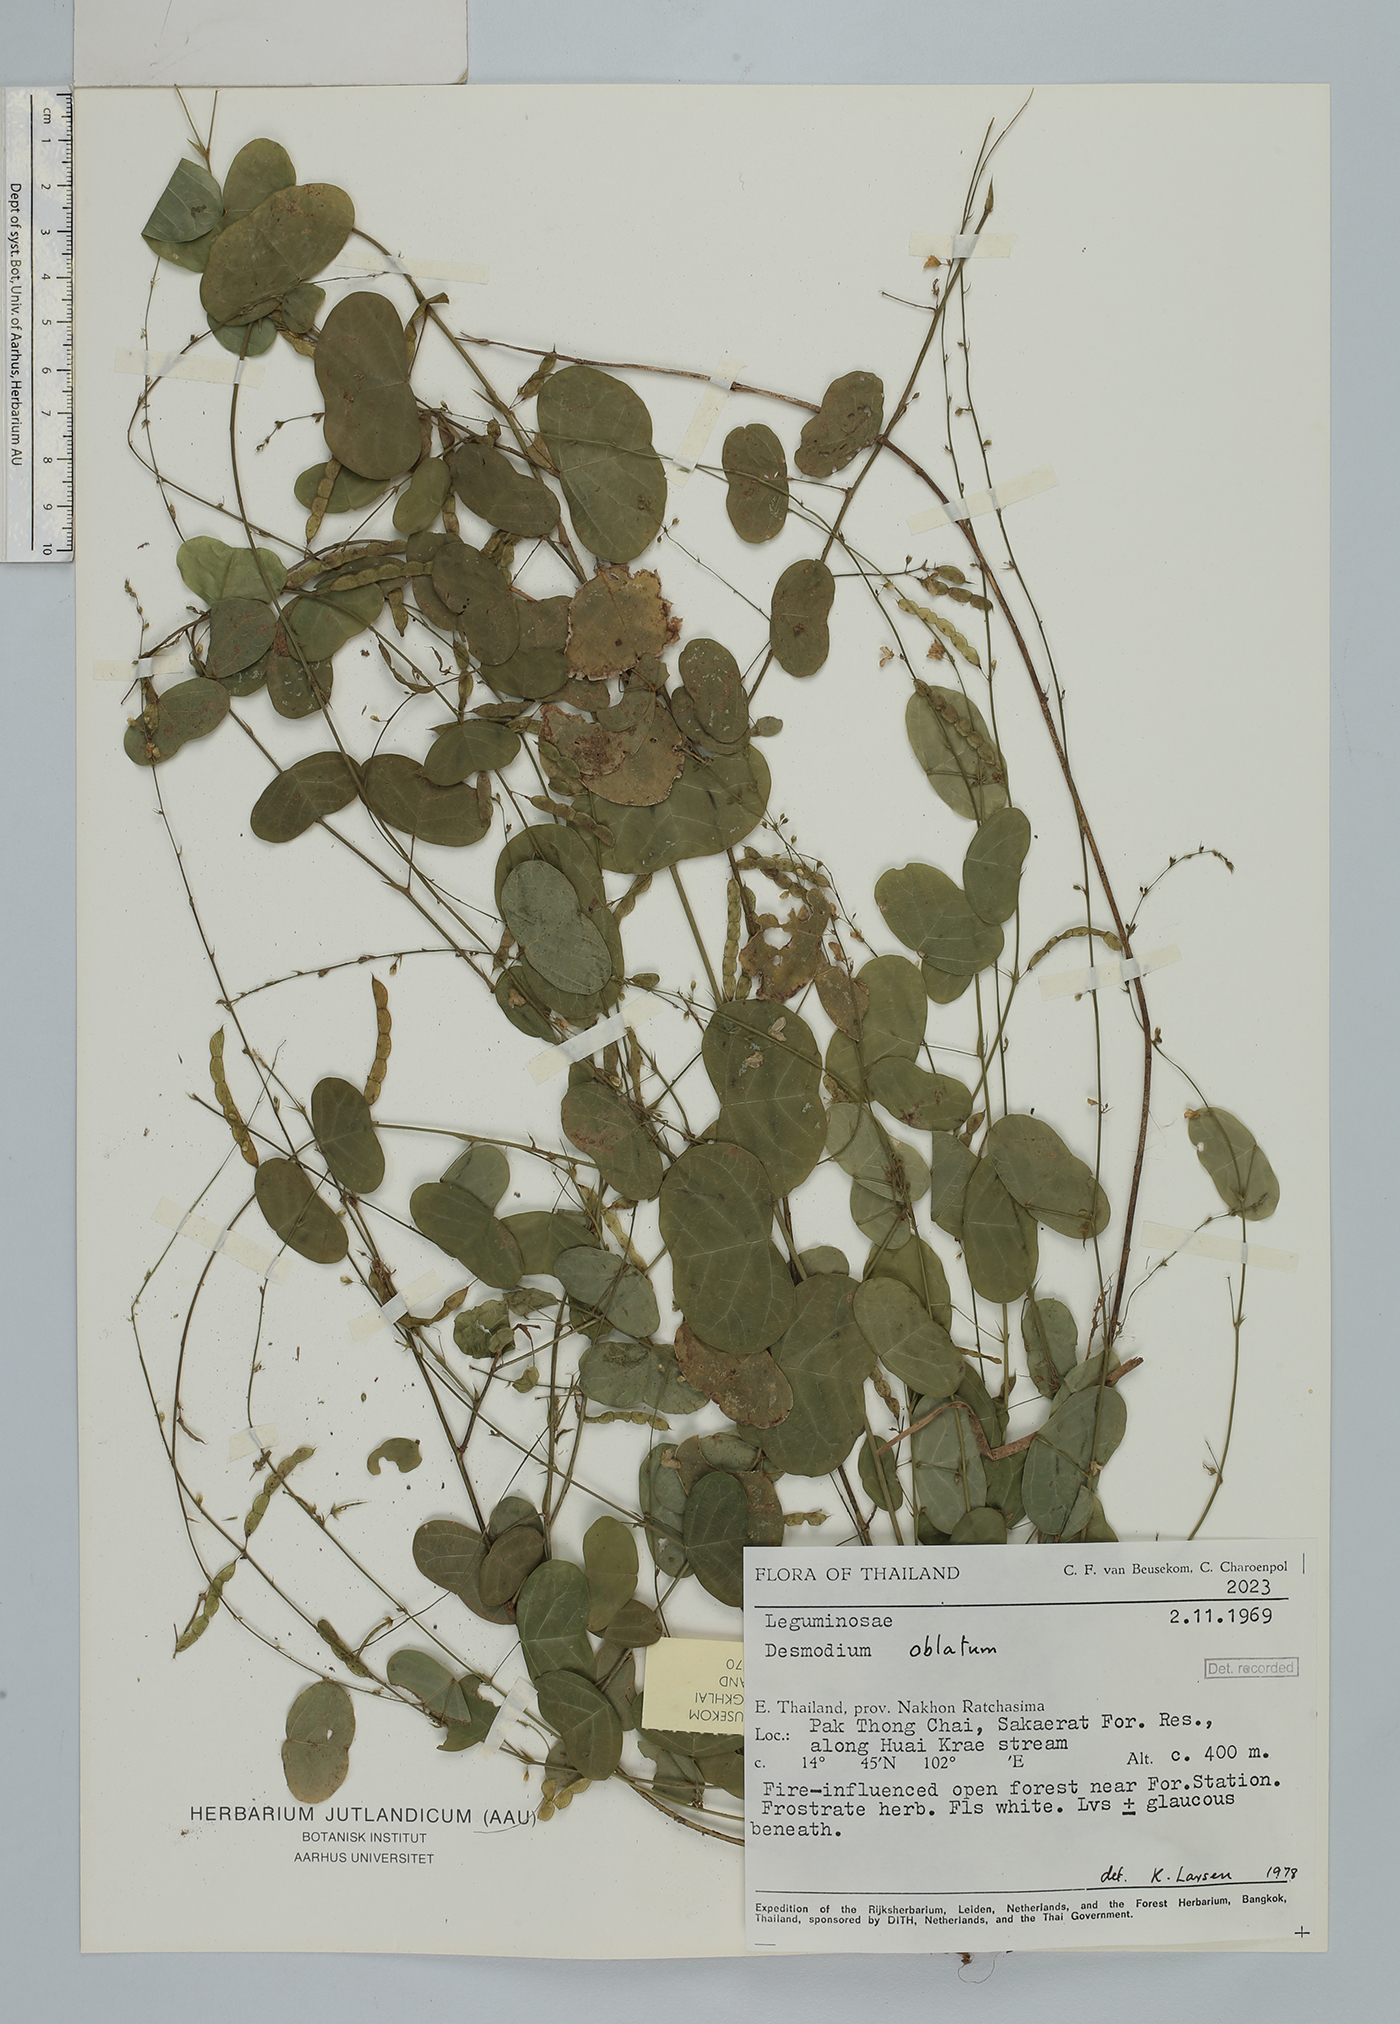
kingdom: Plantae
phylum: Tracheophyta
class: Magnoliopsida
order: Fabales
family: Fabaceae
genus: Huangtcia
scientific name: Huangtcia renifolia
